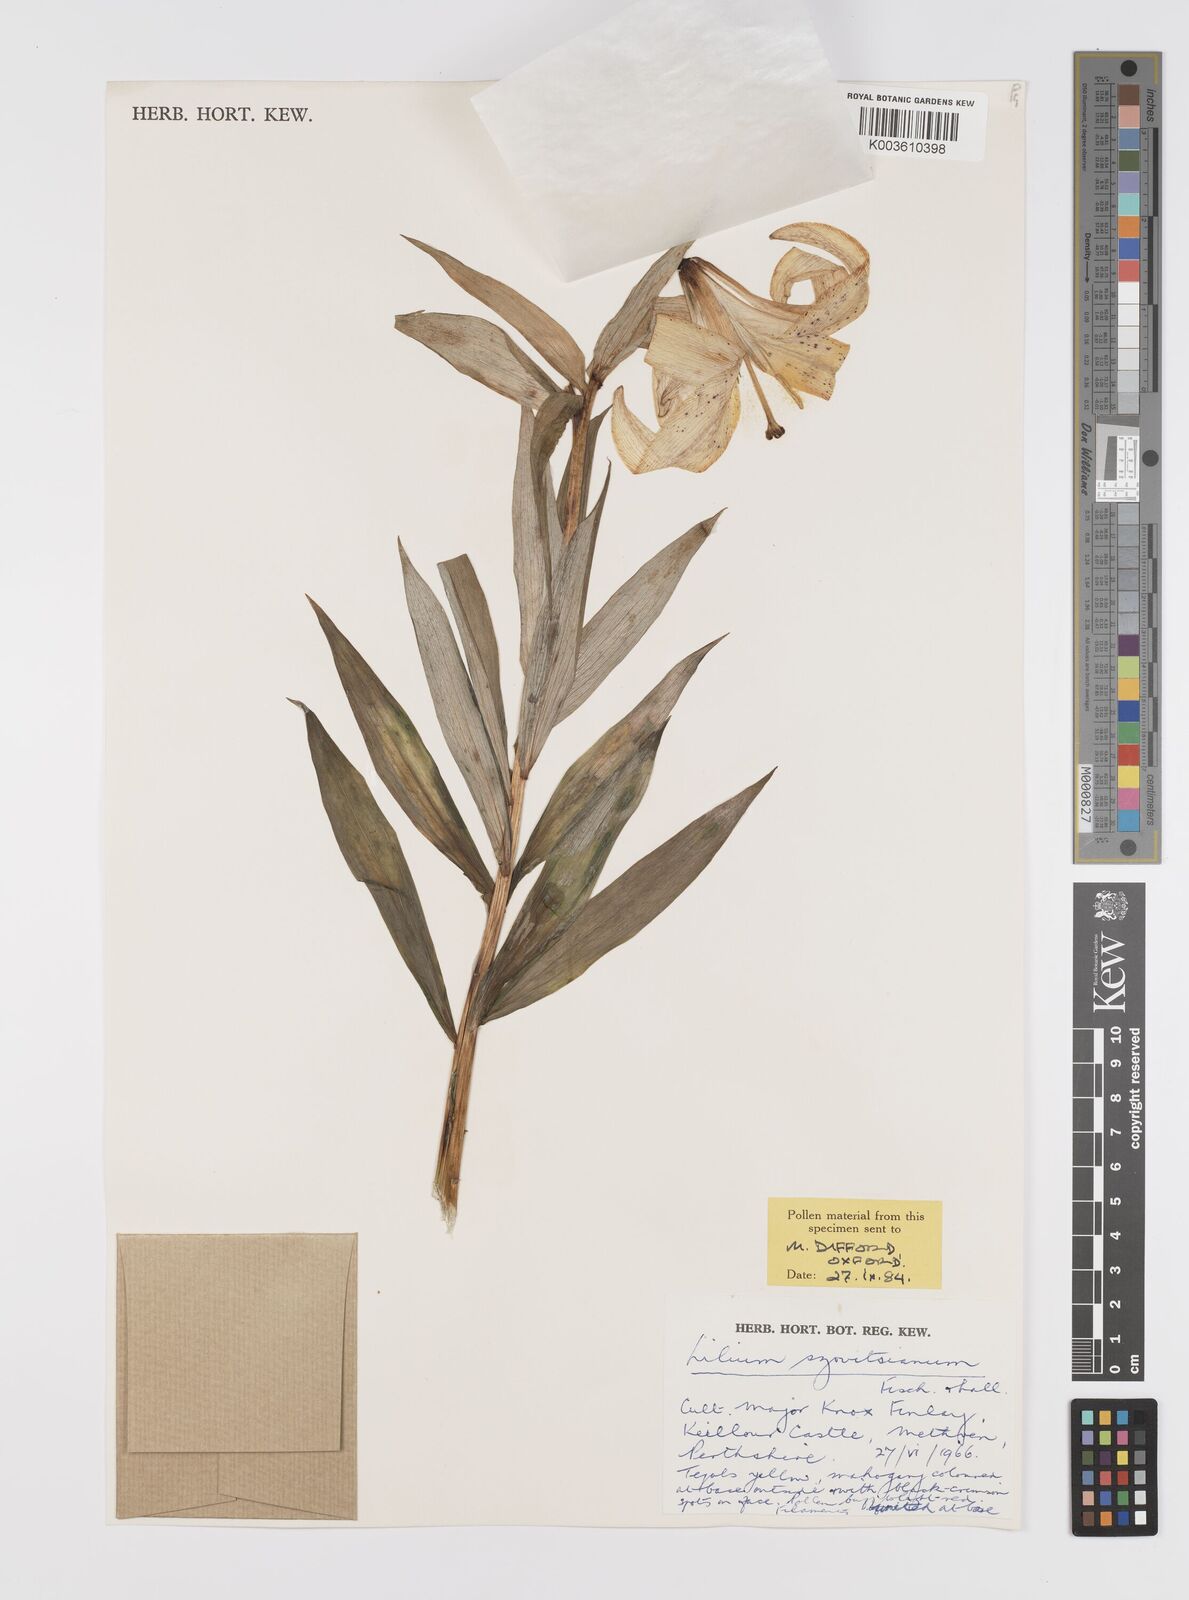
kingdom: Plantae
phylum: Tracheophyta
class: Liliopsida
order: Liliales
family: Liliaceae
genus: Lilium
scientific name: Lilium szovitsianum
